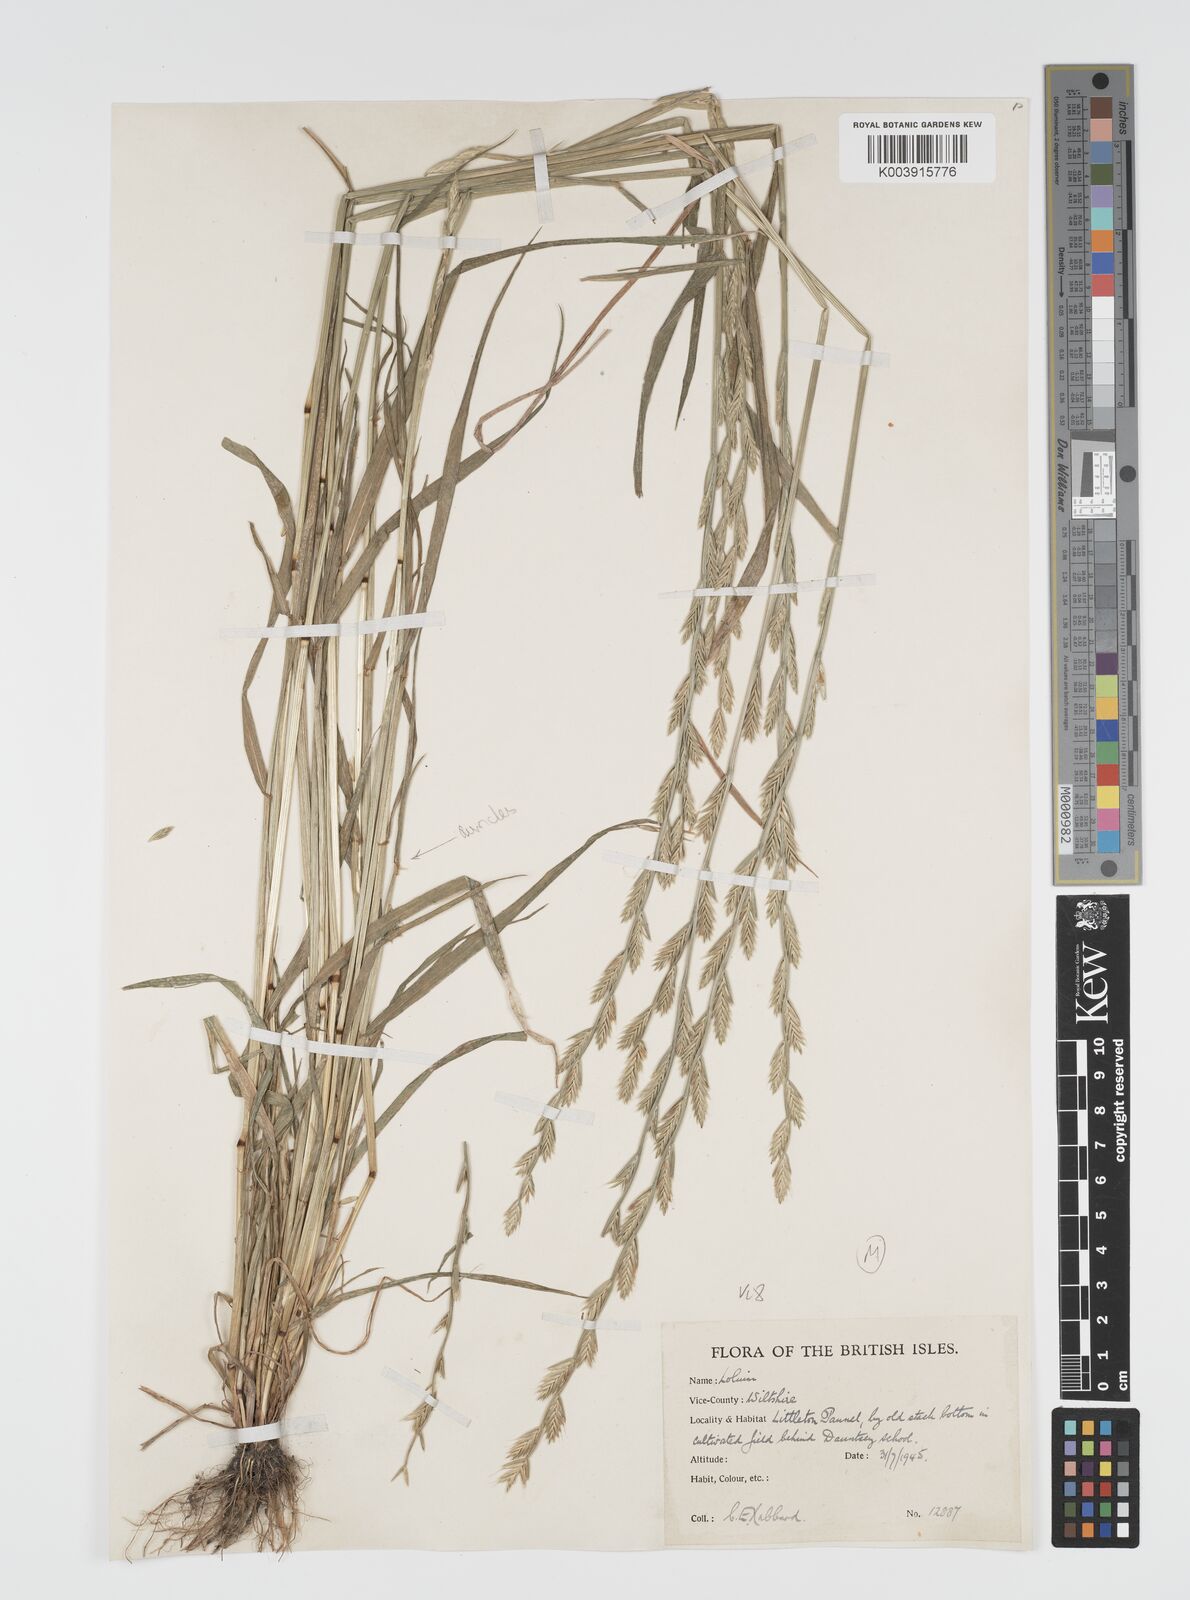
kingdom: Plantae
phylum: Tracheophyta
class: Liliopsida
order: Poales
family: Poaceae
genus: Lolium
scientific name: Lolium multiflorum
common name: Annual ryegrass
